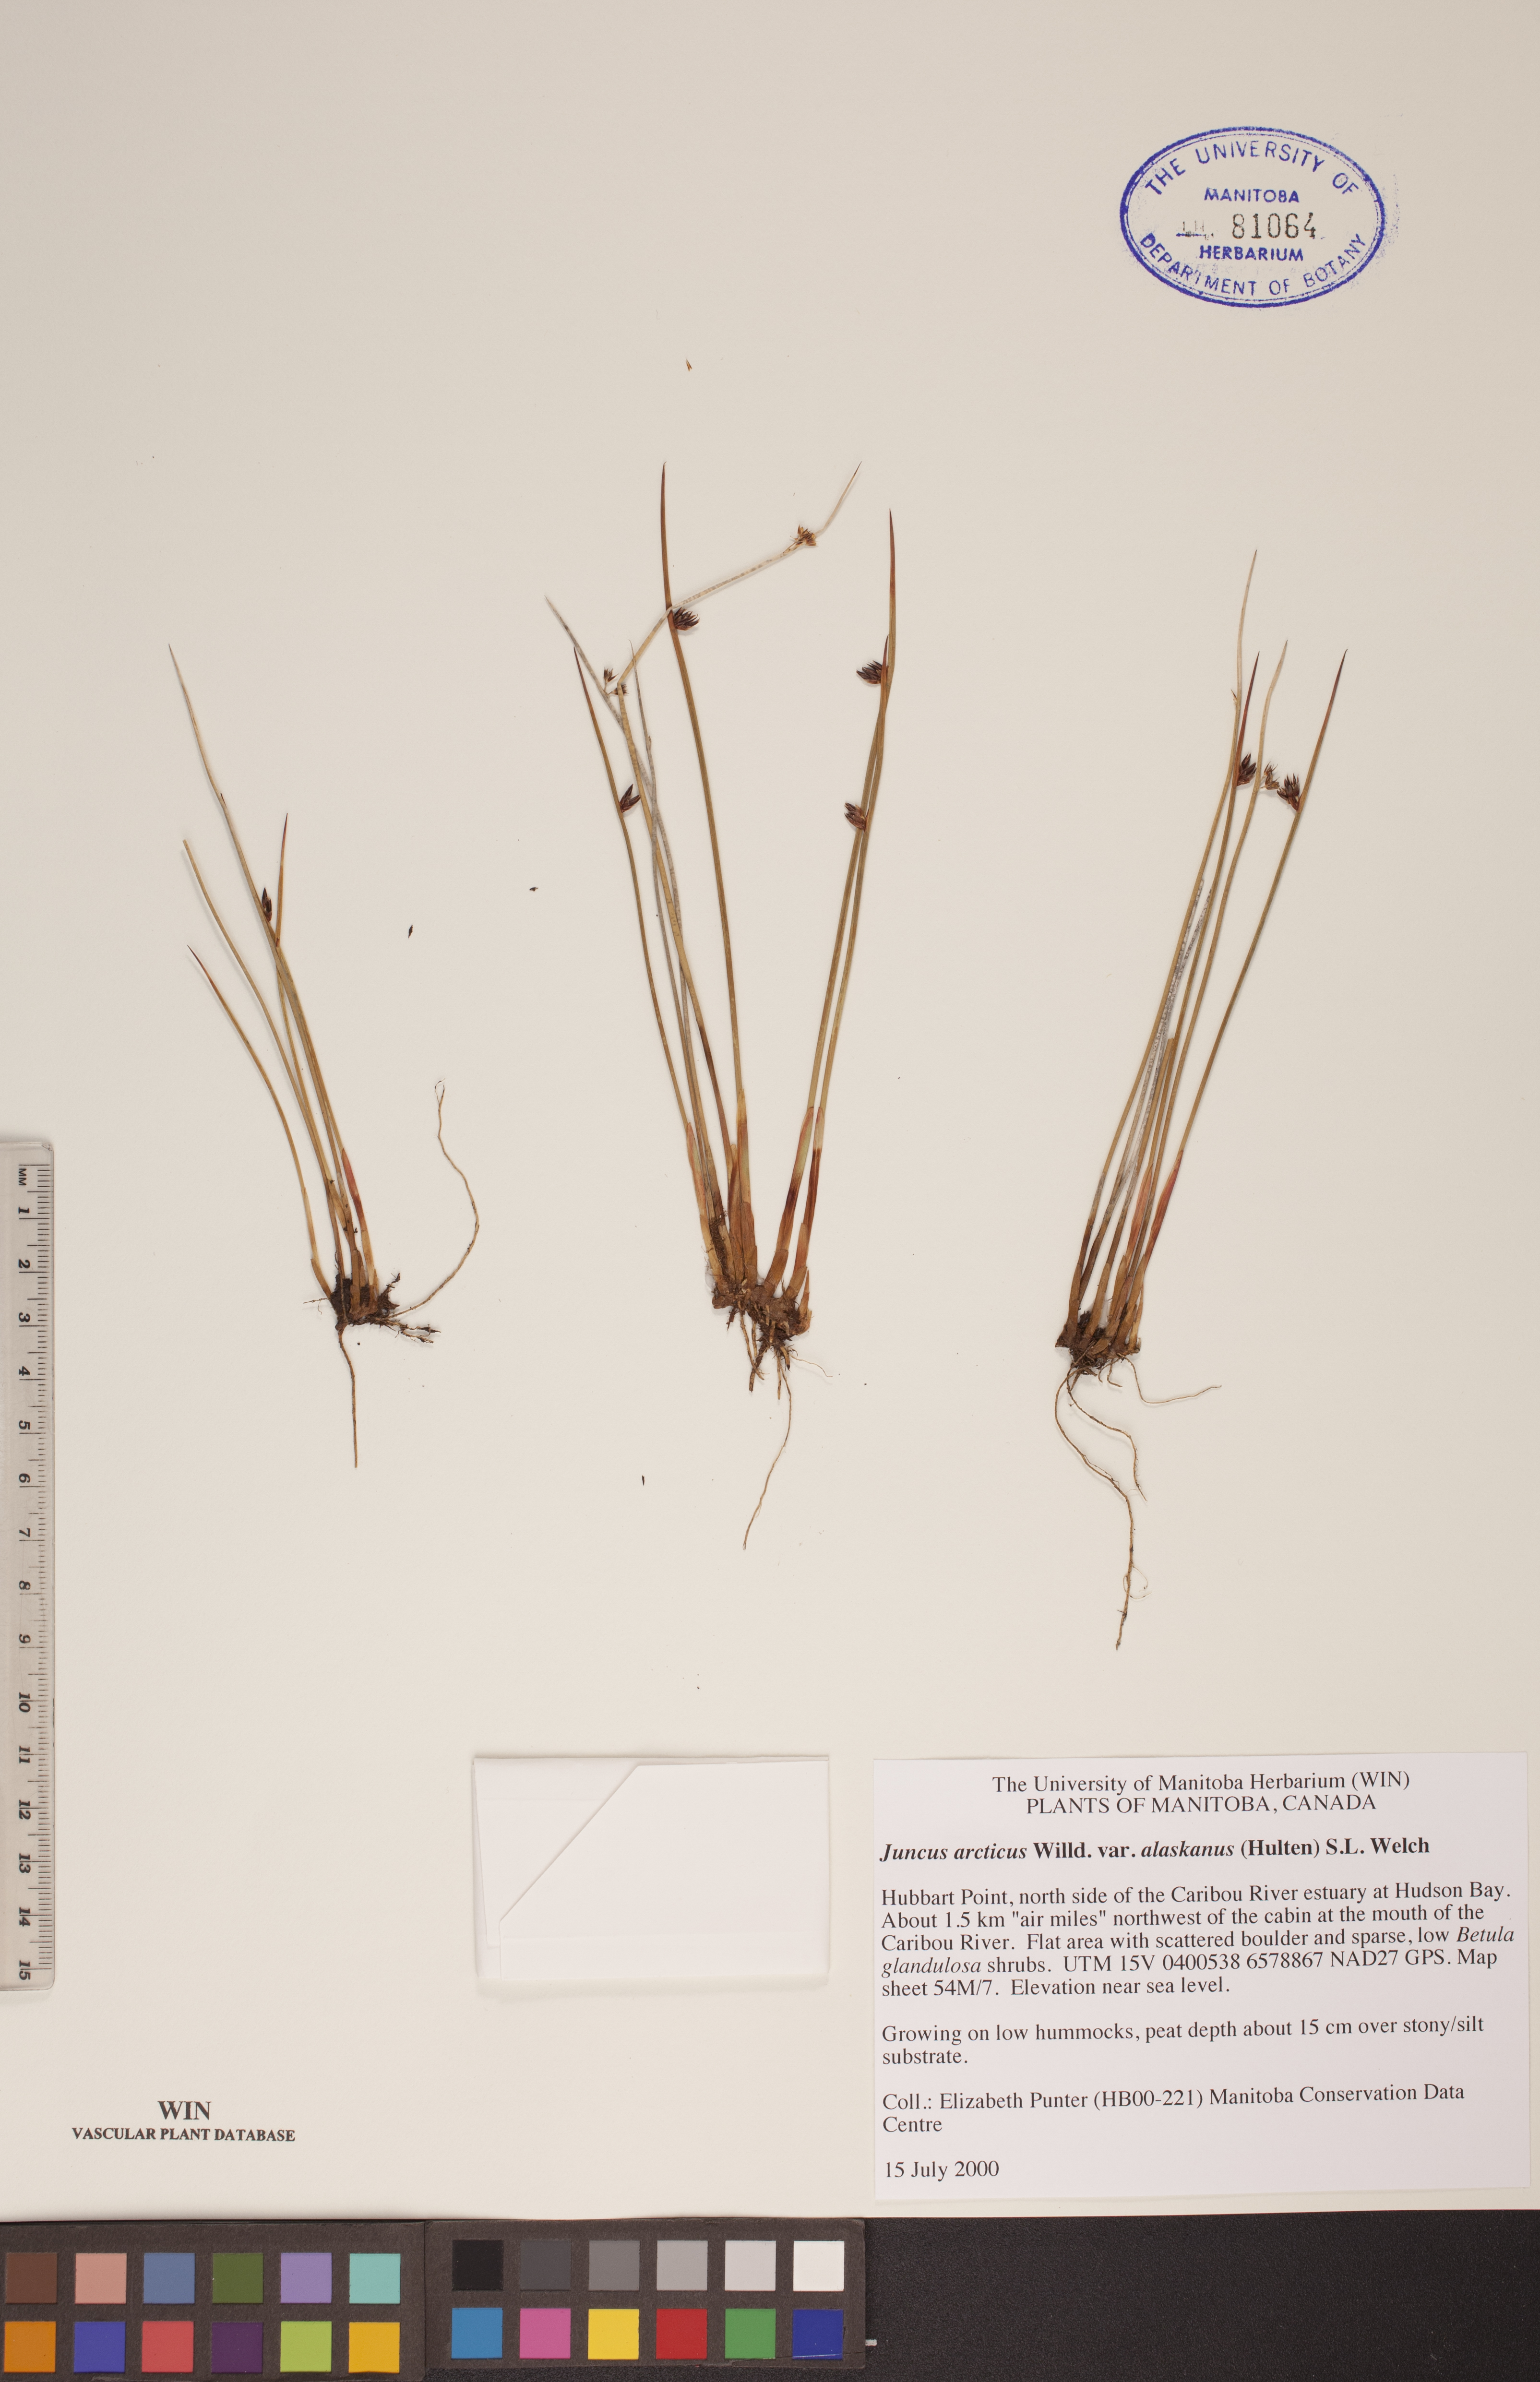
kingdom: Plantae
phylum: Tracheophyta
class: Liliopsida
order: Poales
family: Juncaceae
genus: Juncus
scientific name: Juncus arcticus
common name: Arctic rush
